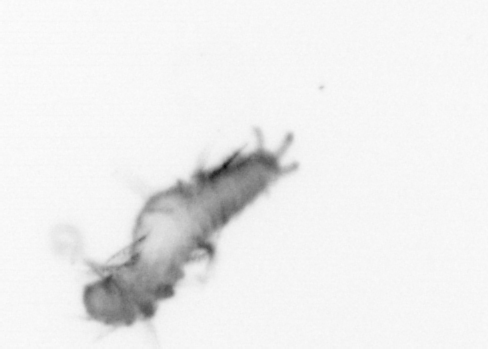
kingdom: Animalia
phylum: Annelida
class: Polychaeta
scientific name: Polychaeta
